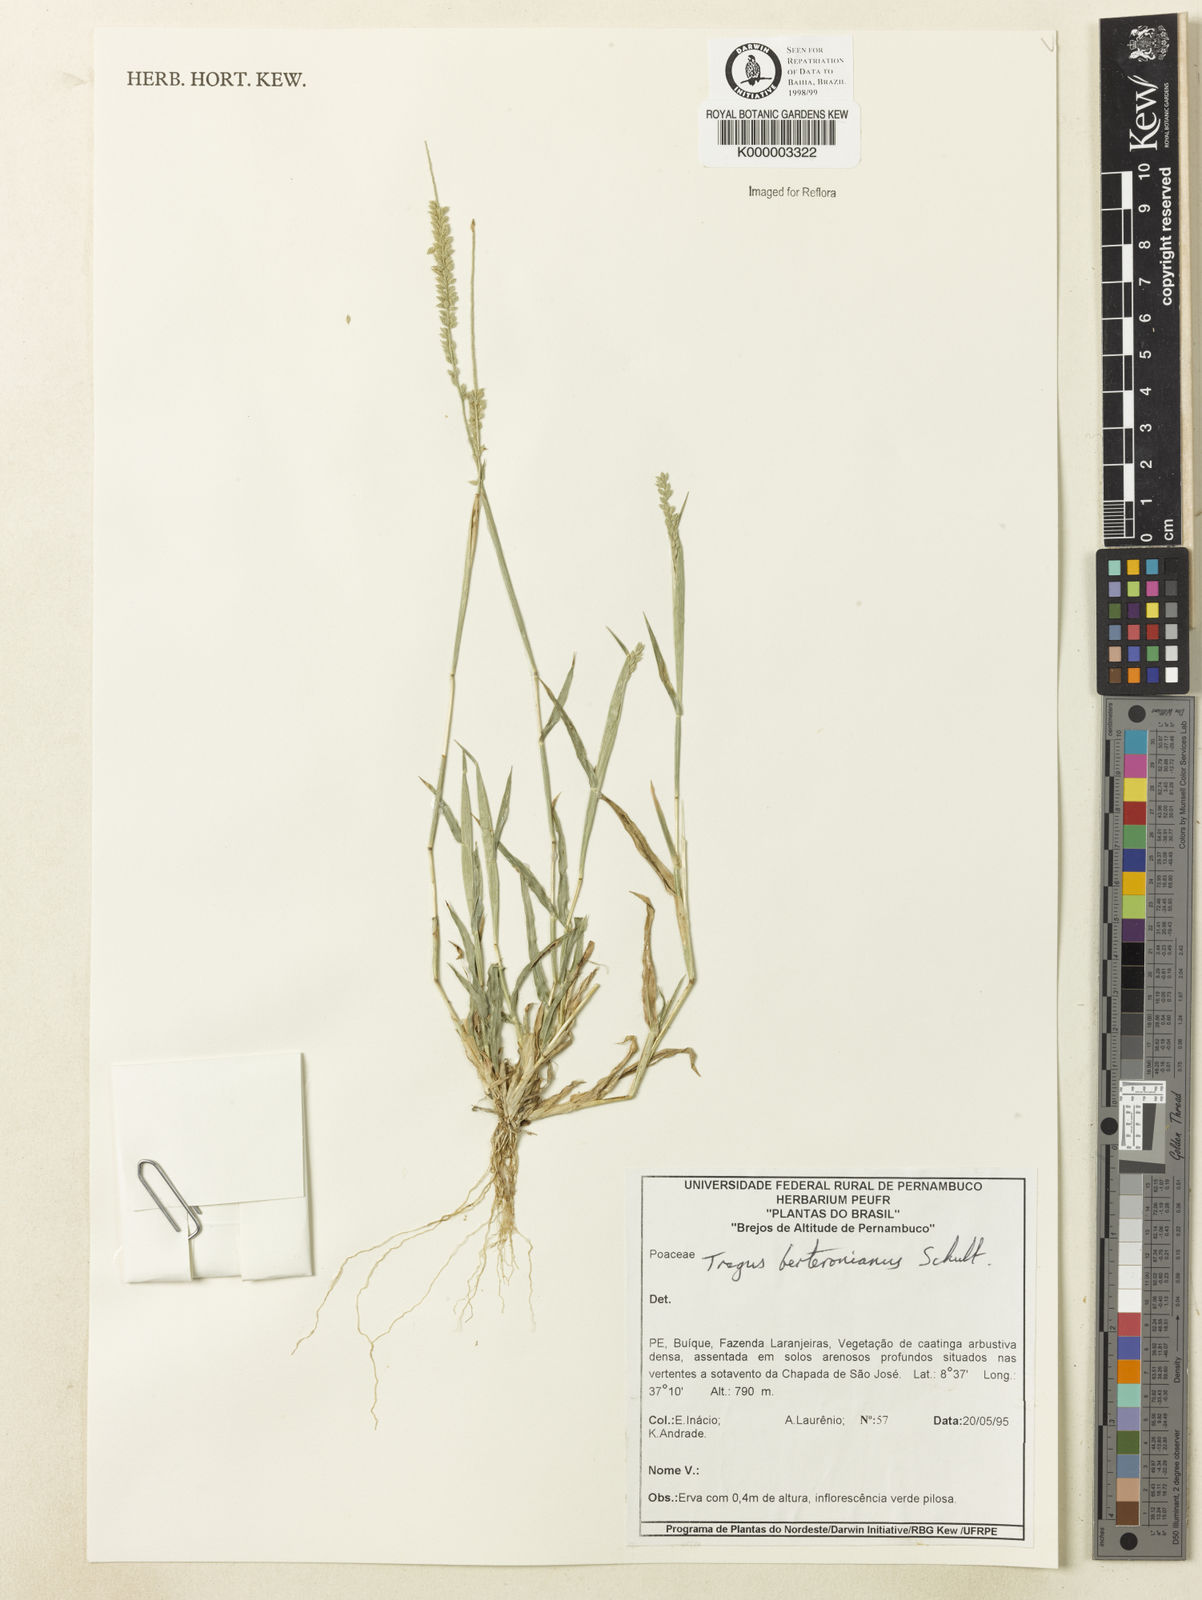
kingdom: Plantae
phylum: Tracheophyta
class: Liliopsida
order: Poales
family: Poaceae
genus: Tragus
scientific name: Tragus berteronianus
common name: African bur-grass
